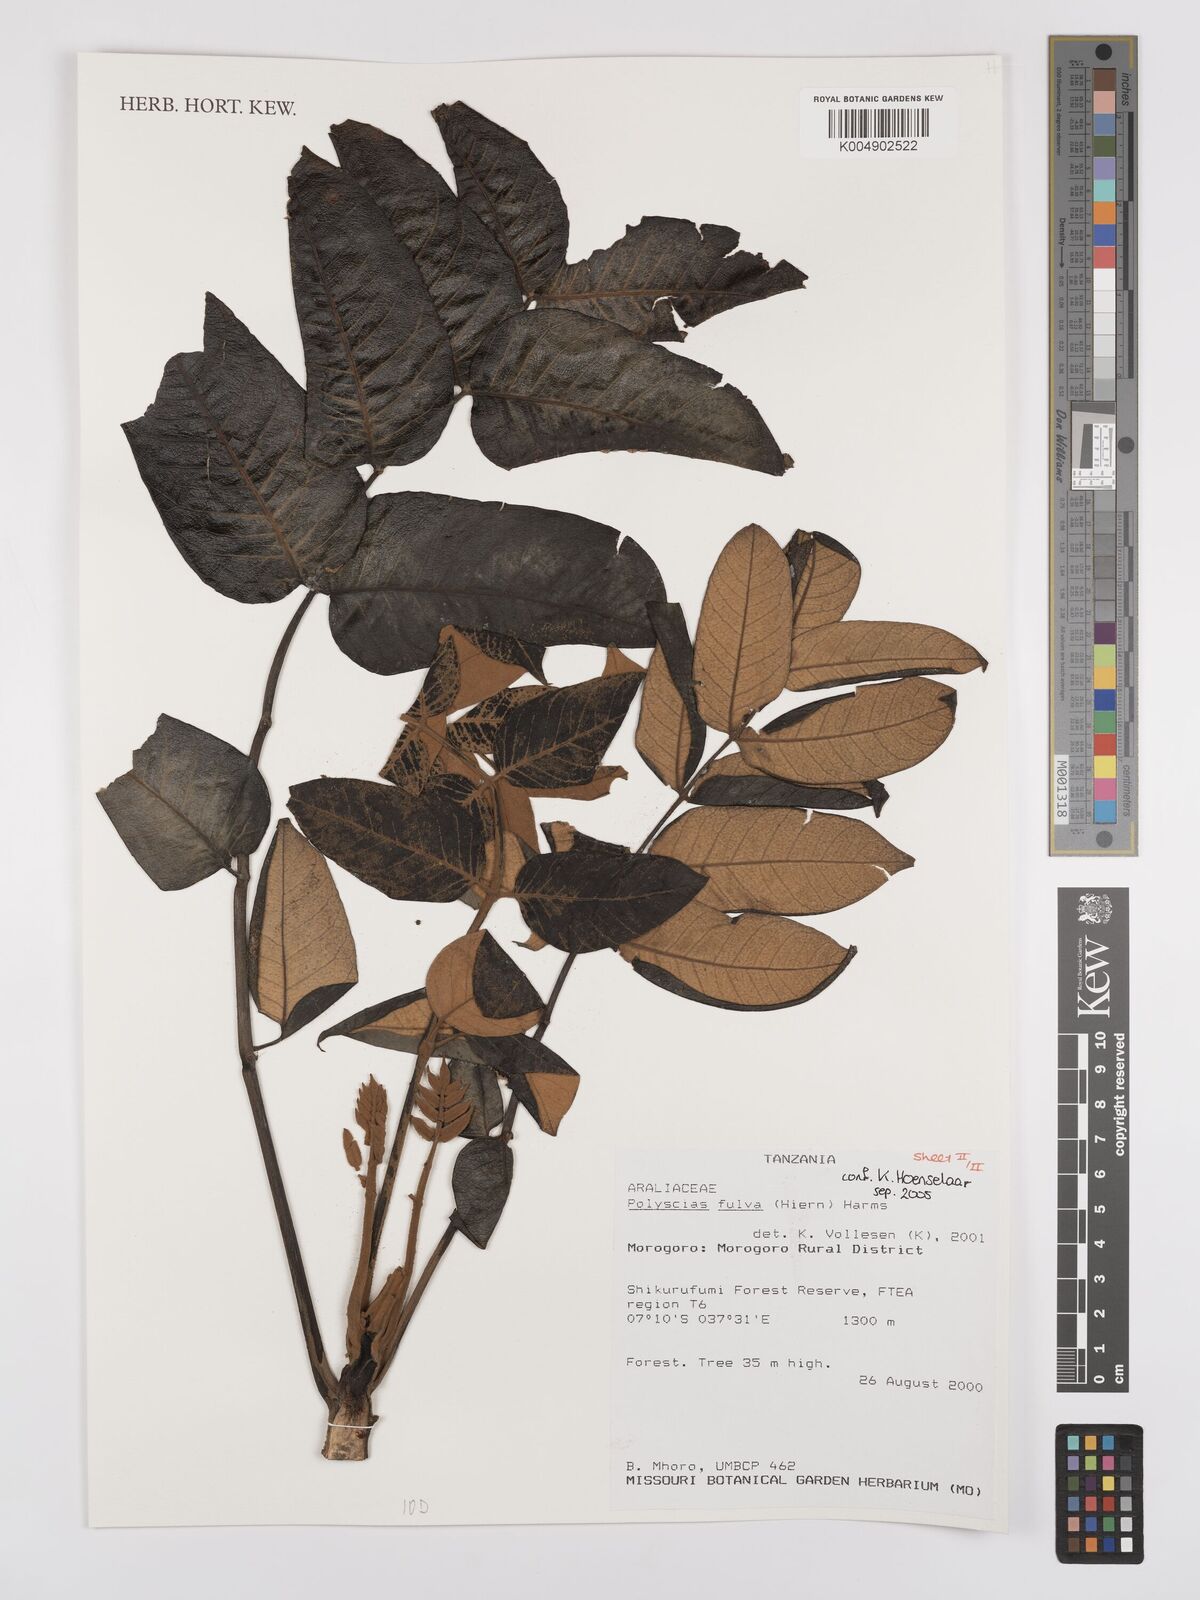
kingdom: Plantae
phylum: Tracheophyta
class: Magnoliopsida
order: Apiales
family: Araliaceae
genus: Polyscias
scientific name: Polyscias fulva
